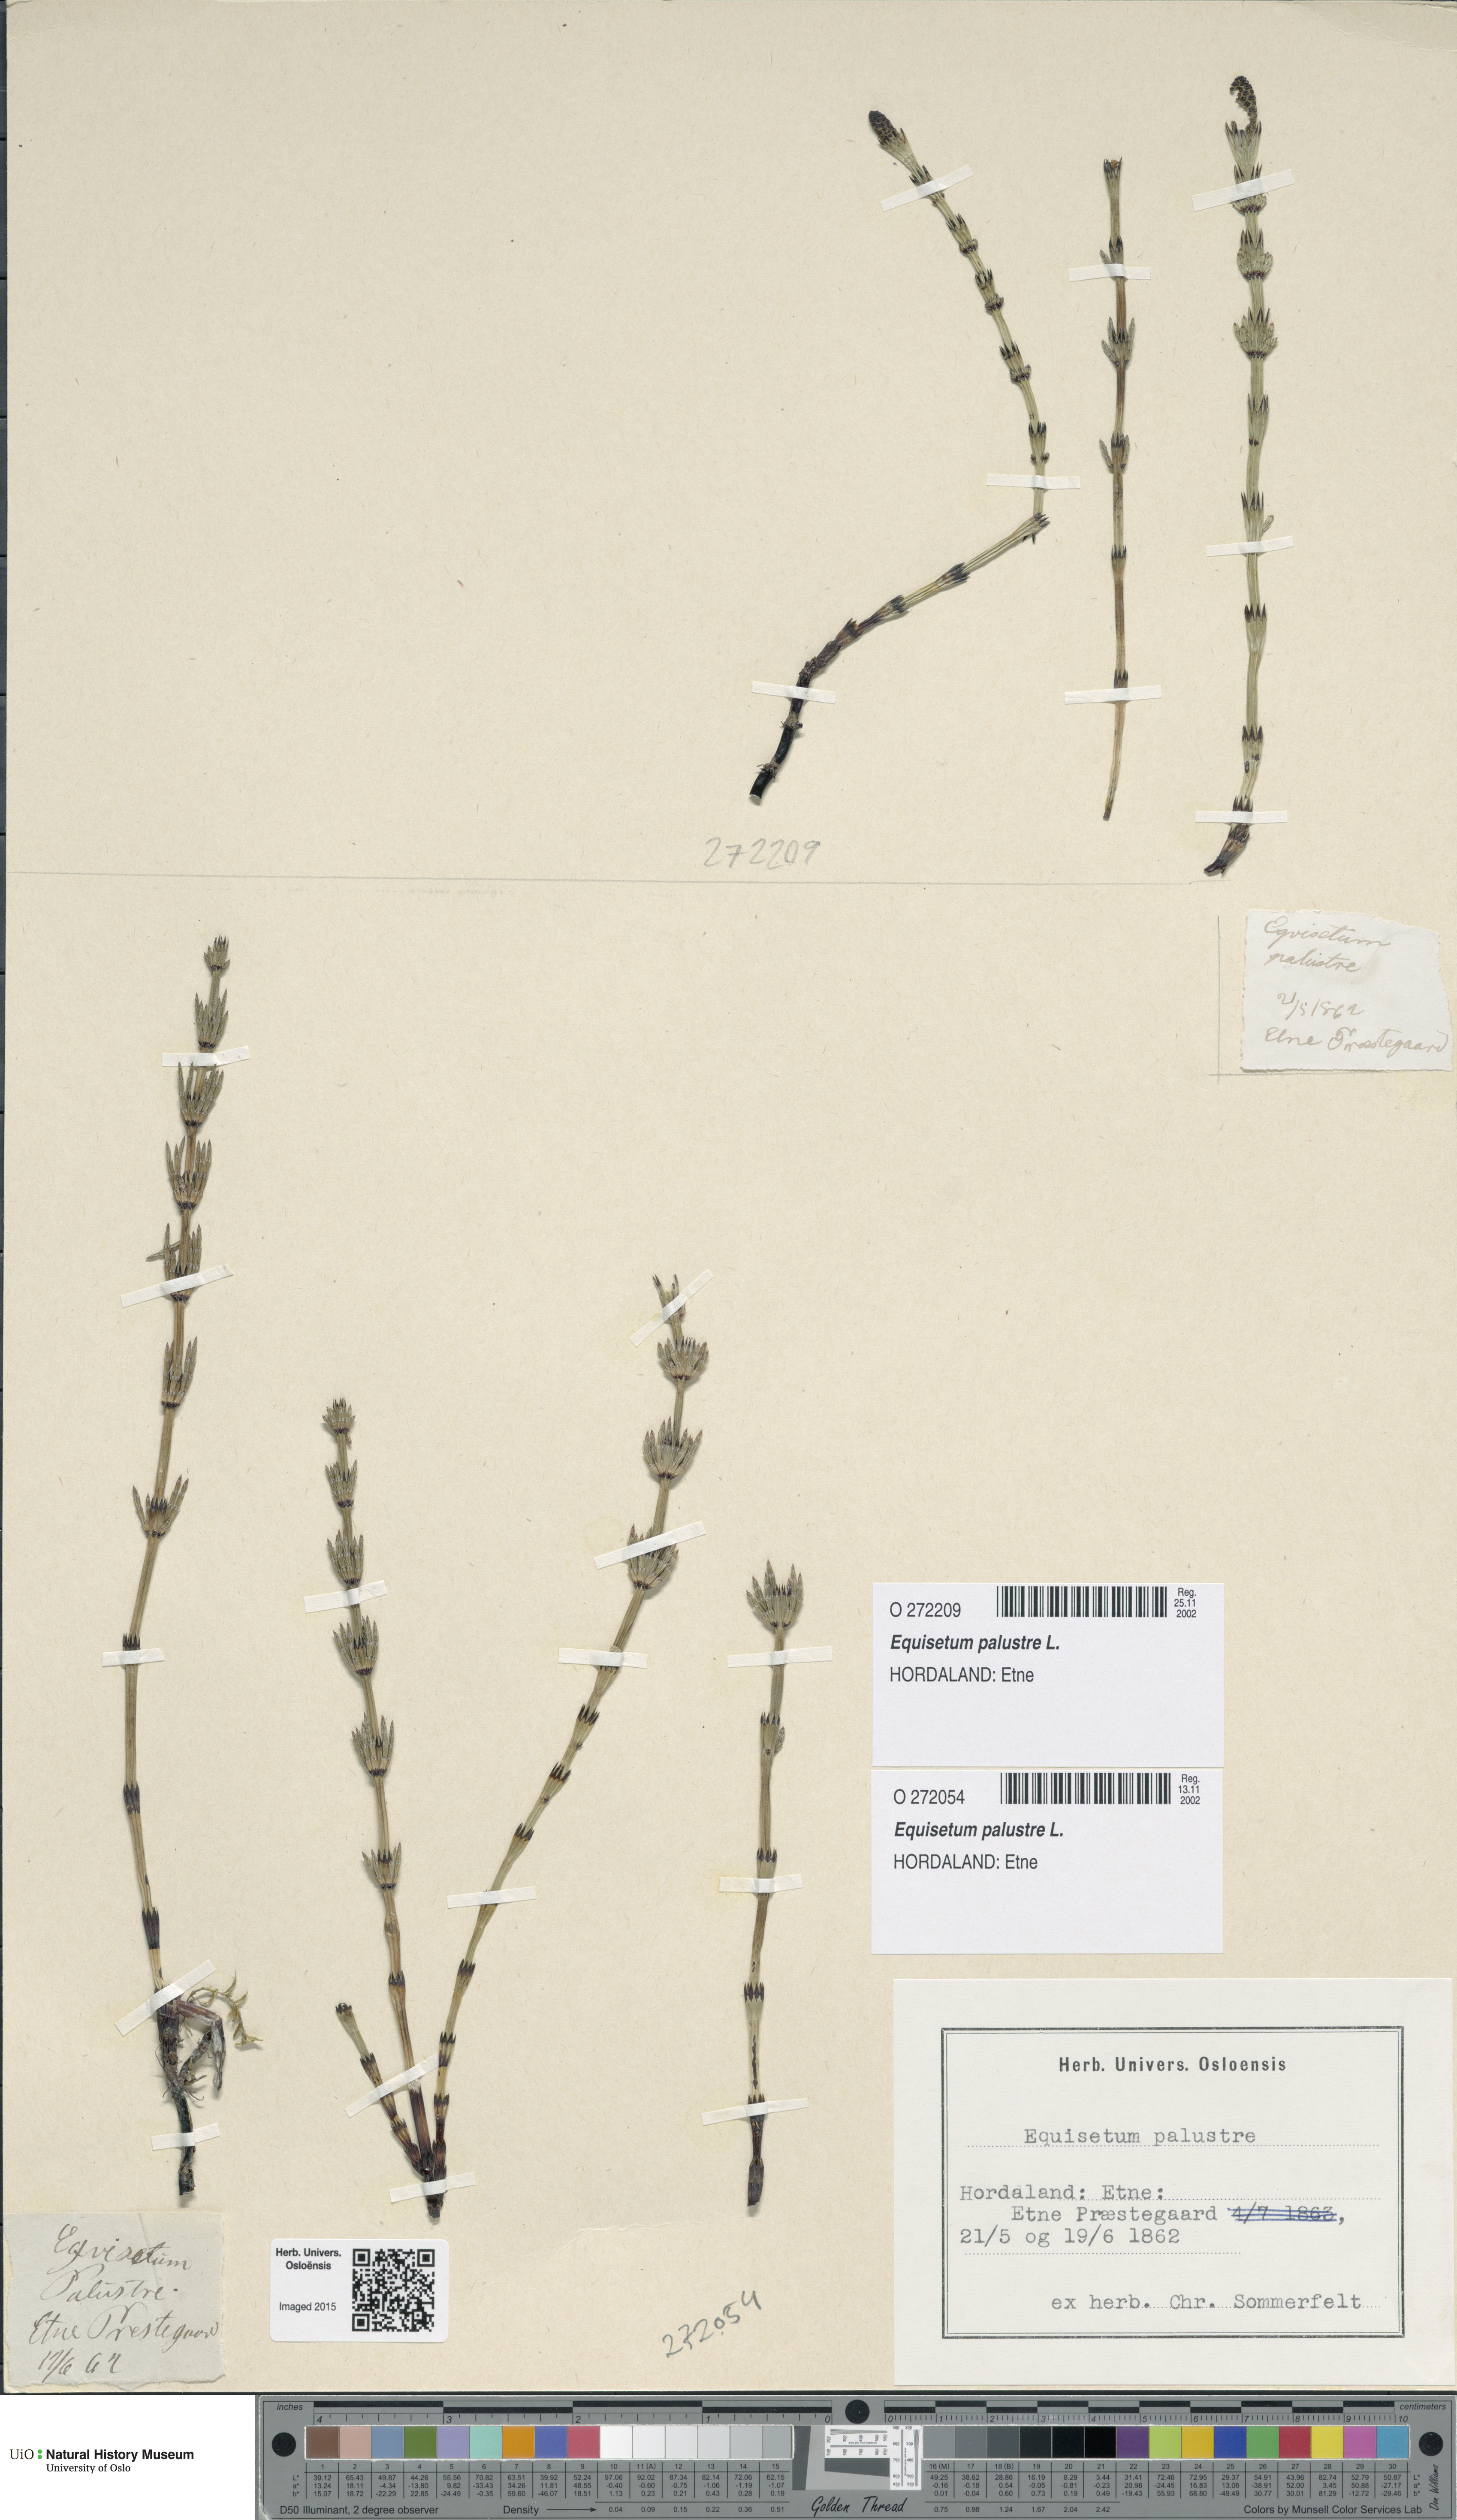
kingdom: Plantae
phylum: Tracheophyta
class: Polypodiopsida
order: Equisetales
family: Equisetaceae
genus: Equisetum
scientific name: Equisetum palustre
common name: Marsh horsetail
